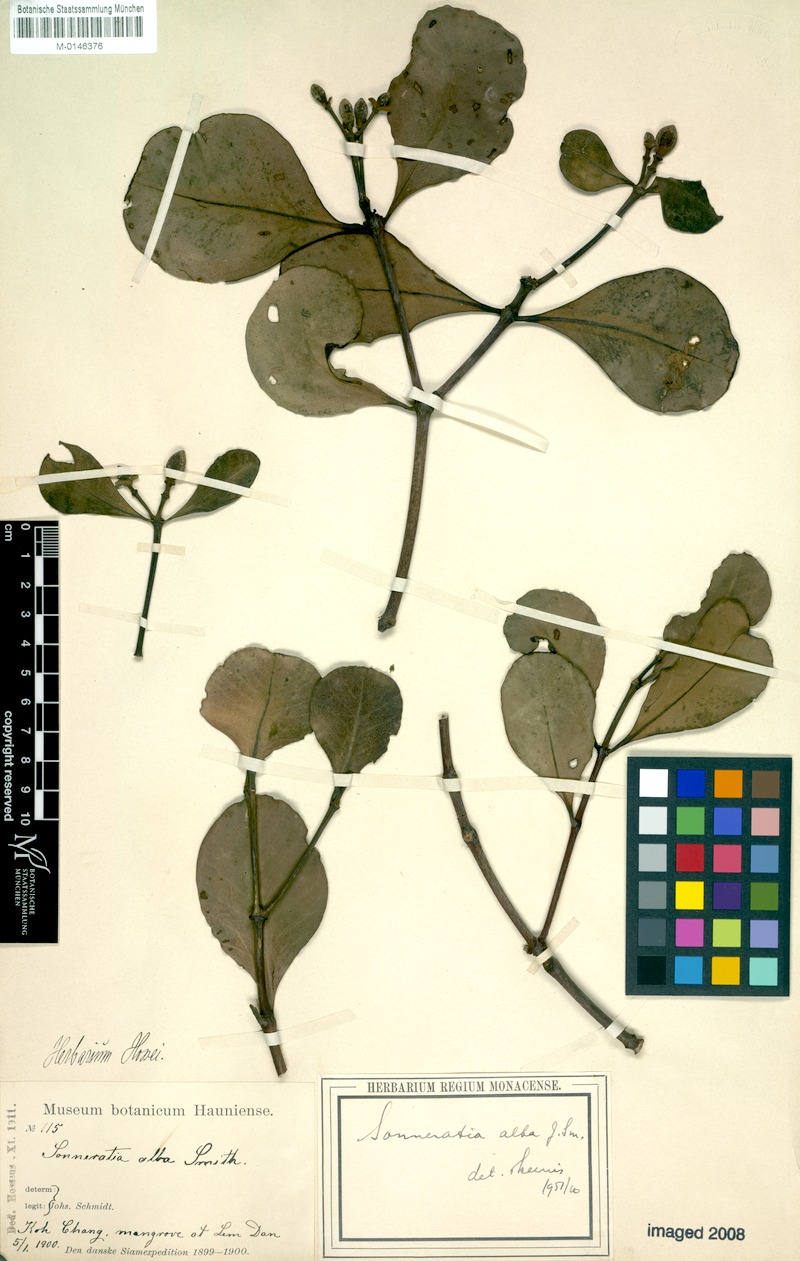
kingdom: Plantae
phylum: Tracheophyta
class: Magnoliopsida
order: Myrtales
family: Lythraceae
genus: Sonneratia
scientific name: Sonneratia alba
